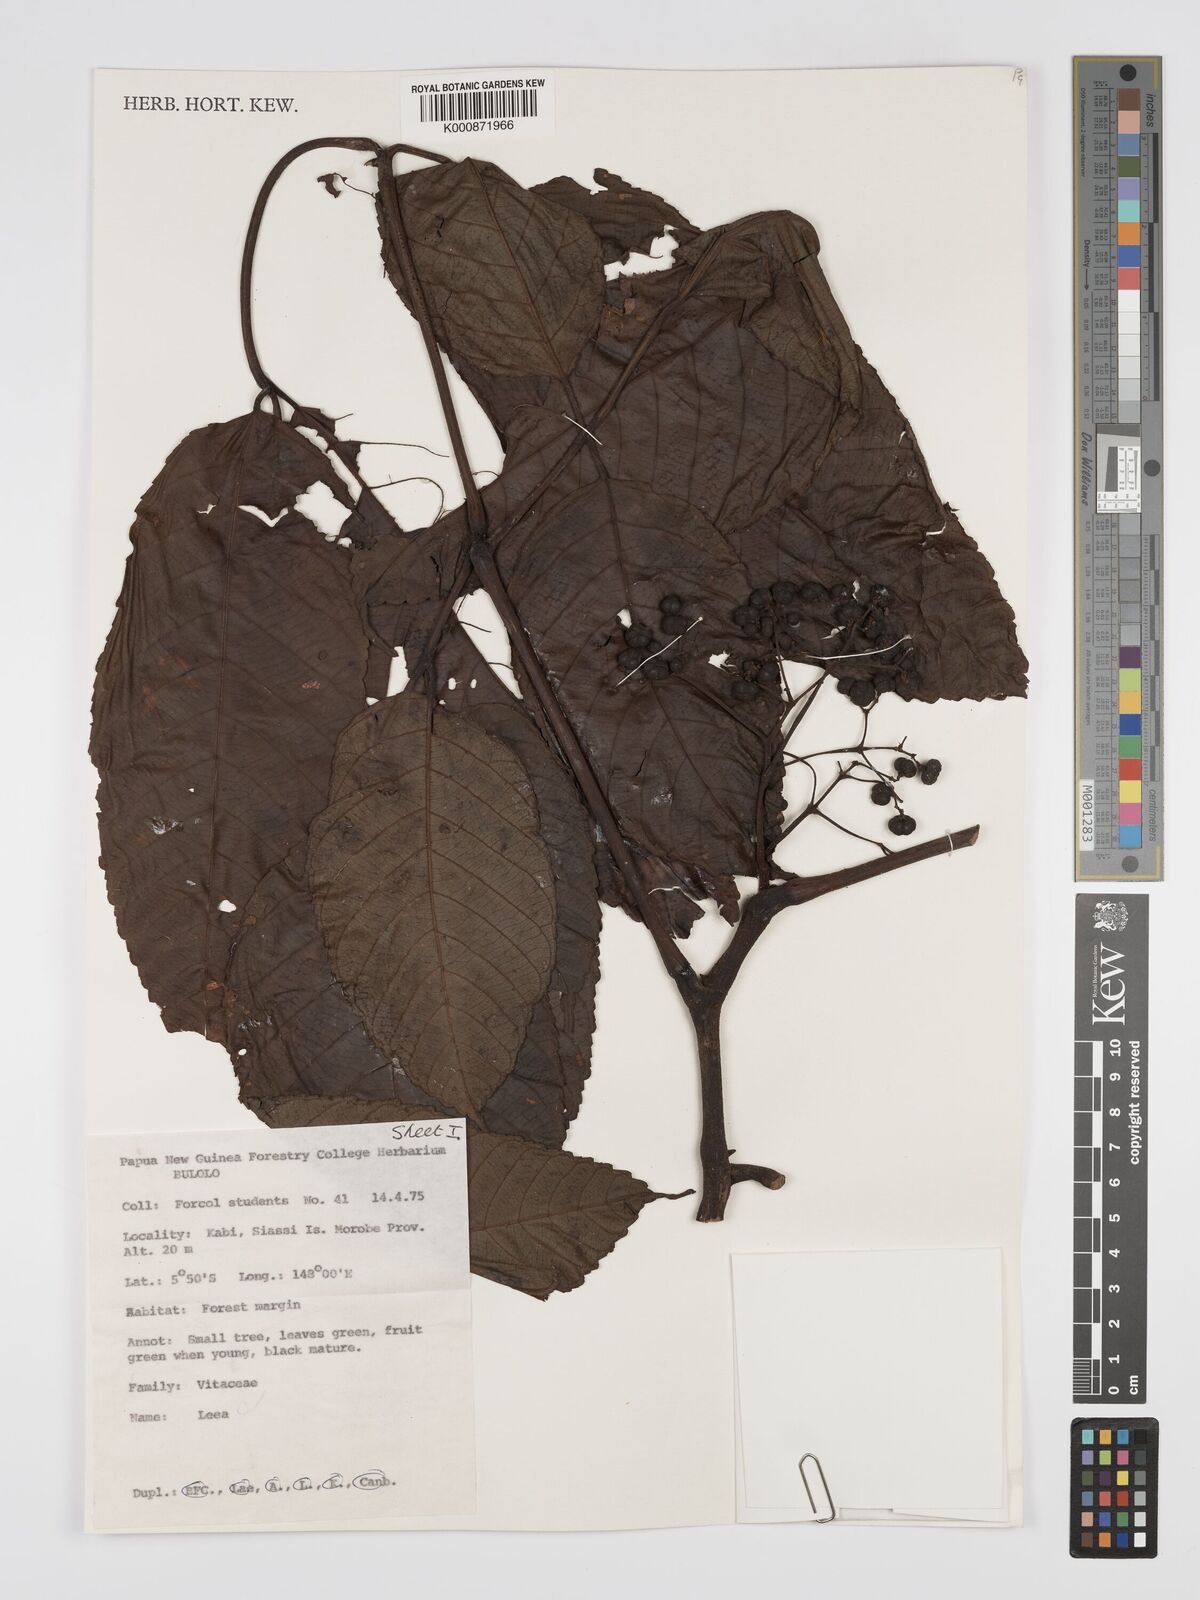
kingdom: Plantae
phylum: Tracheophyta
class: Magnoliopsida
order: Vitales
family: Vitaceae
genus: Leea
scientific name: Leea
